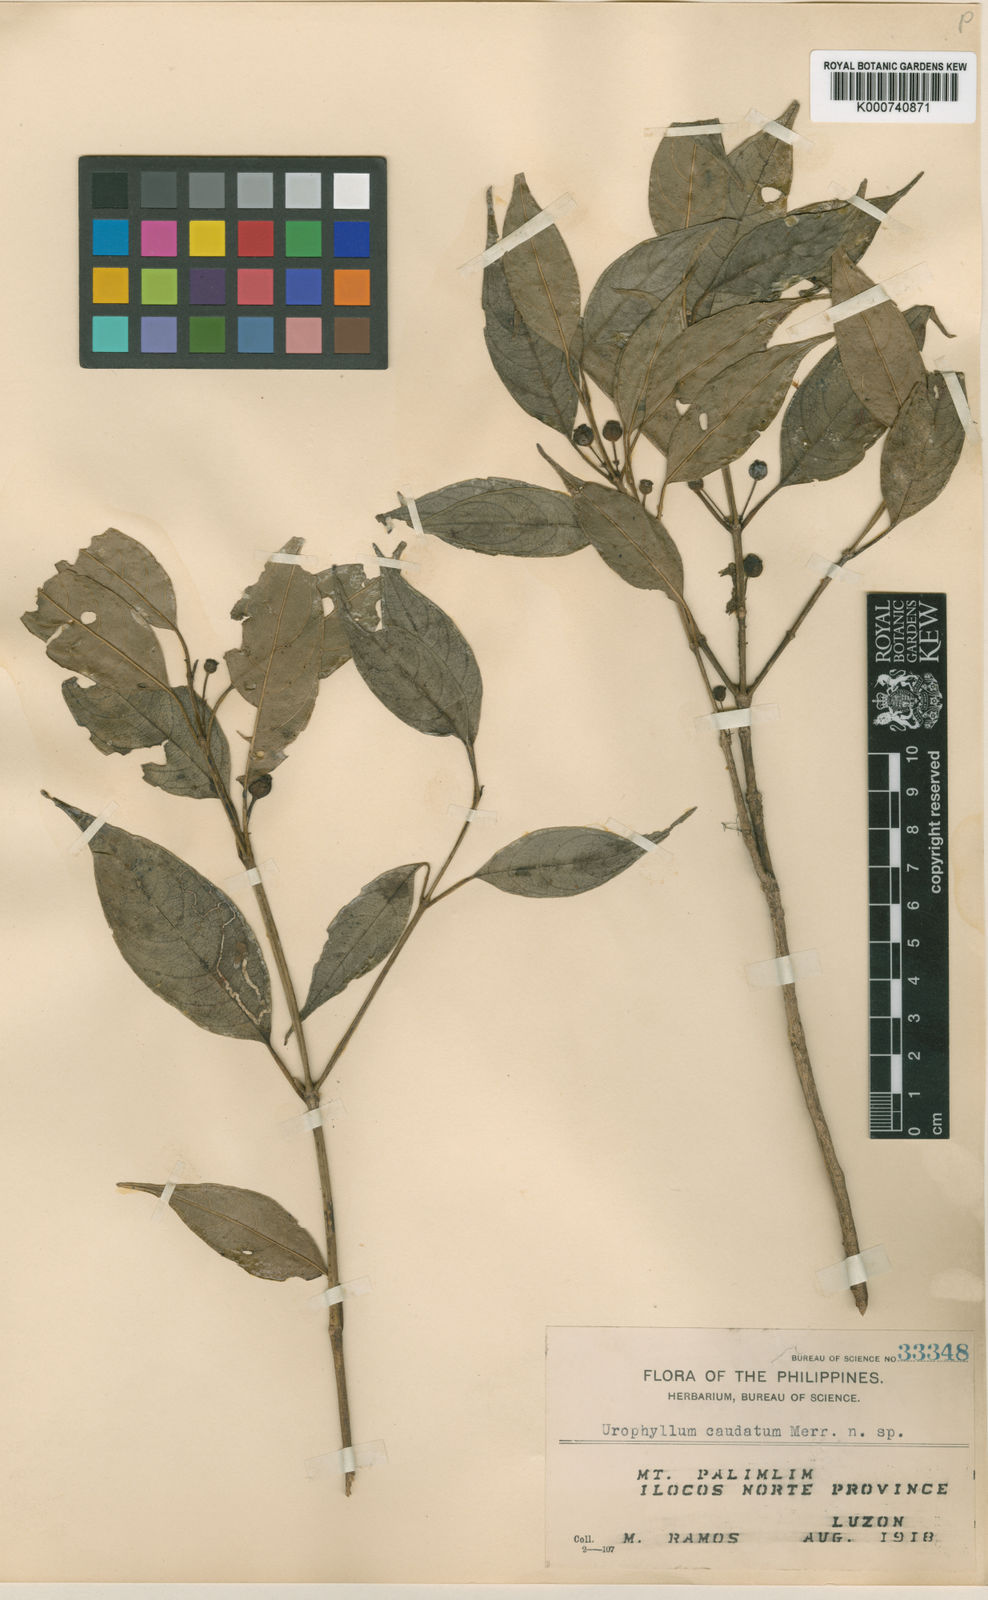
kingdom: Plantae
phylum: Tracheophyta
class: Magnoliopsida
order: Gentianales
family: Rubiaceae
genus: Urophyllum
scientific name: Urophyllum caudatum
